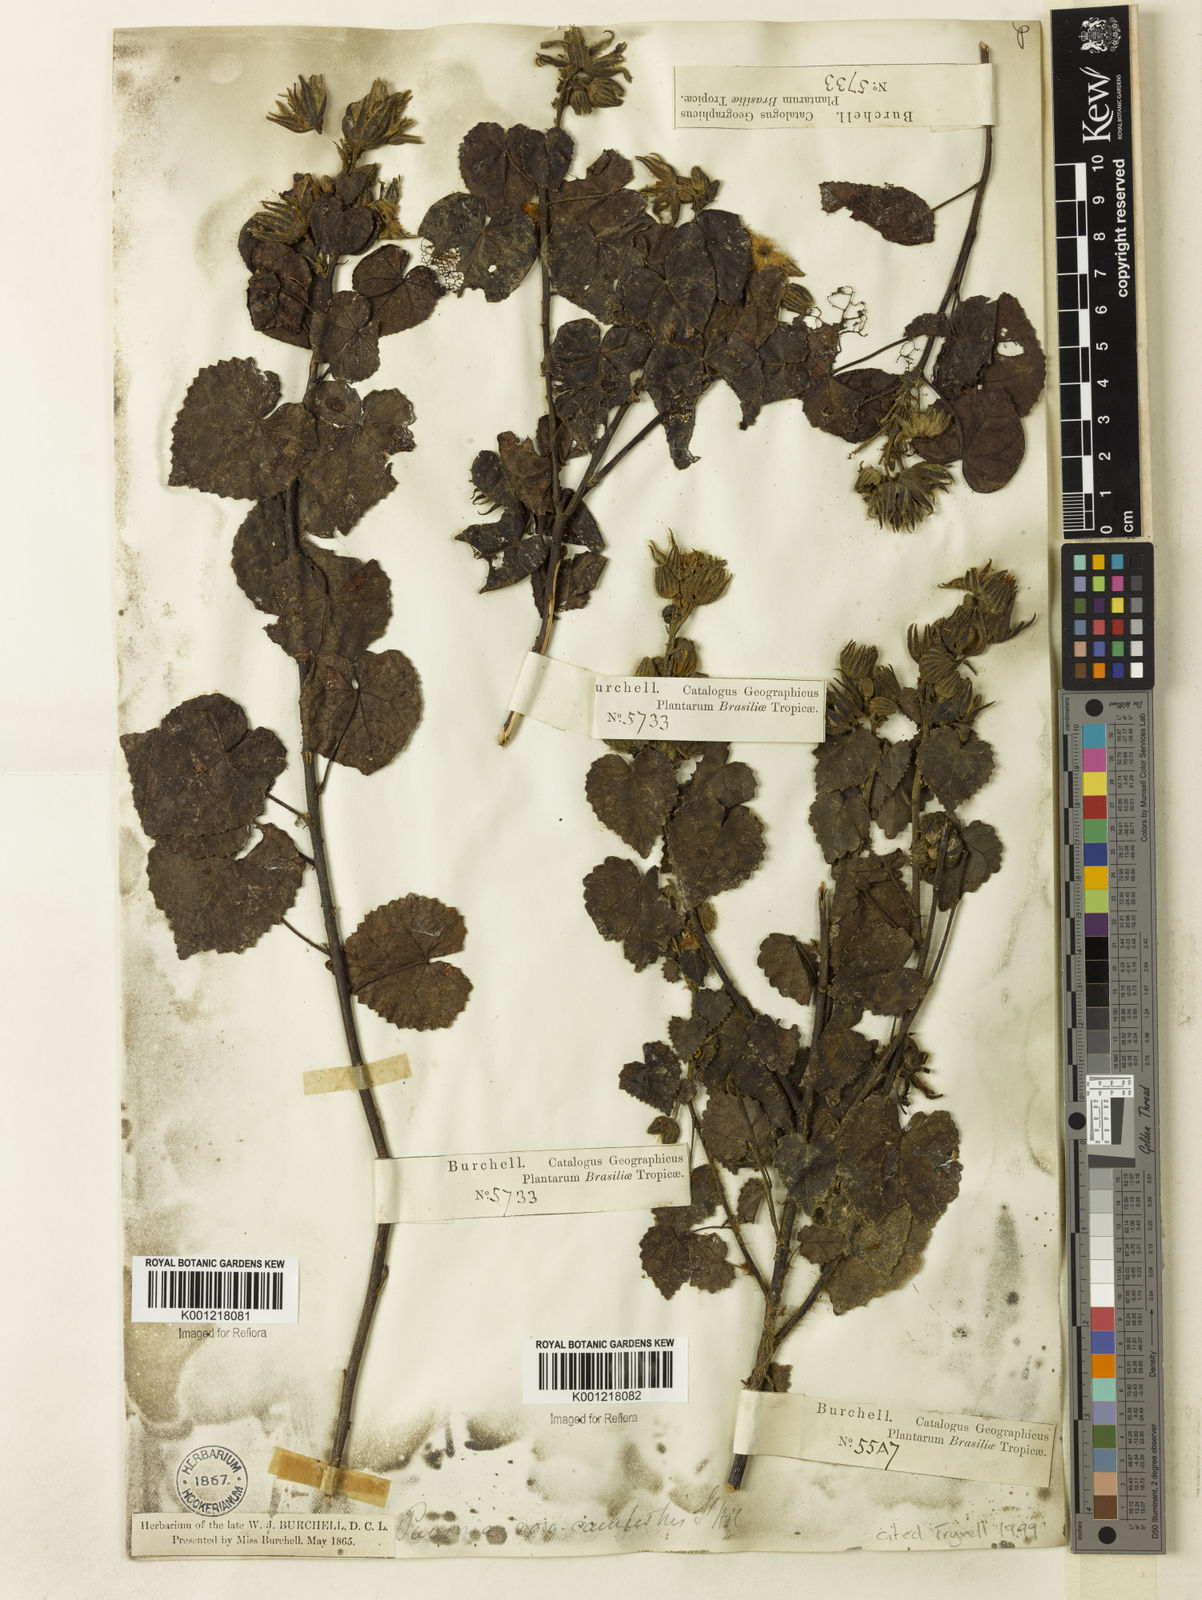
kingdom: Plantae
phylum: Tracheophyta
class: Magnoliopsida
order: Malvales
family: Malvaceae
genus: Pavonia
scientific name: Pavonia rosa-campestris
